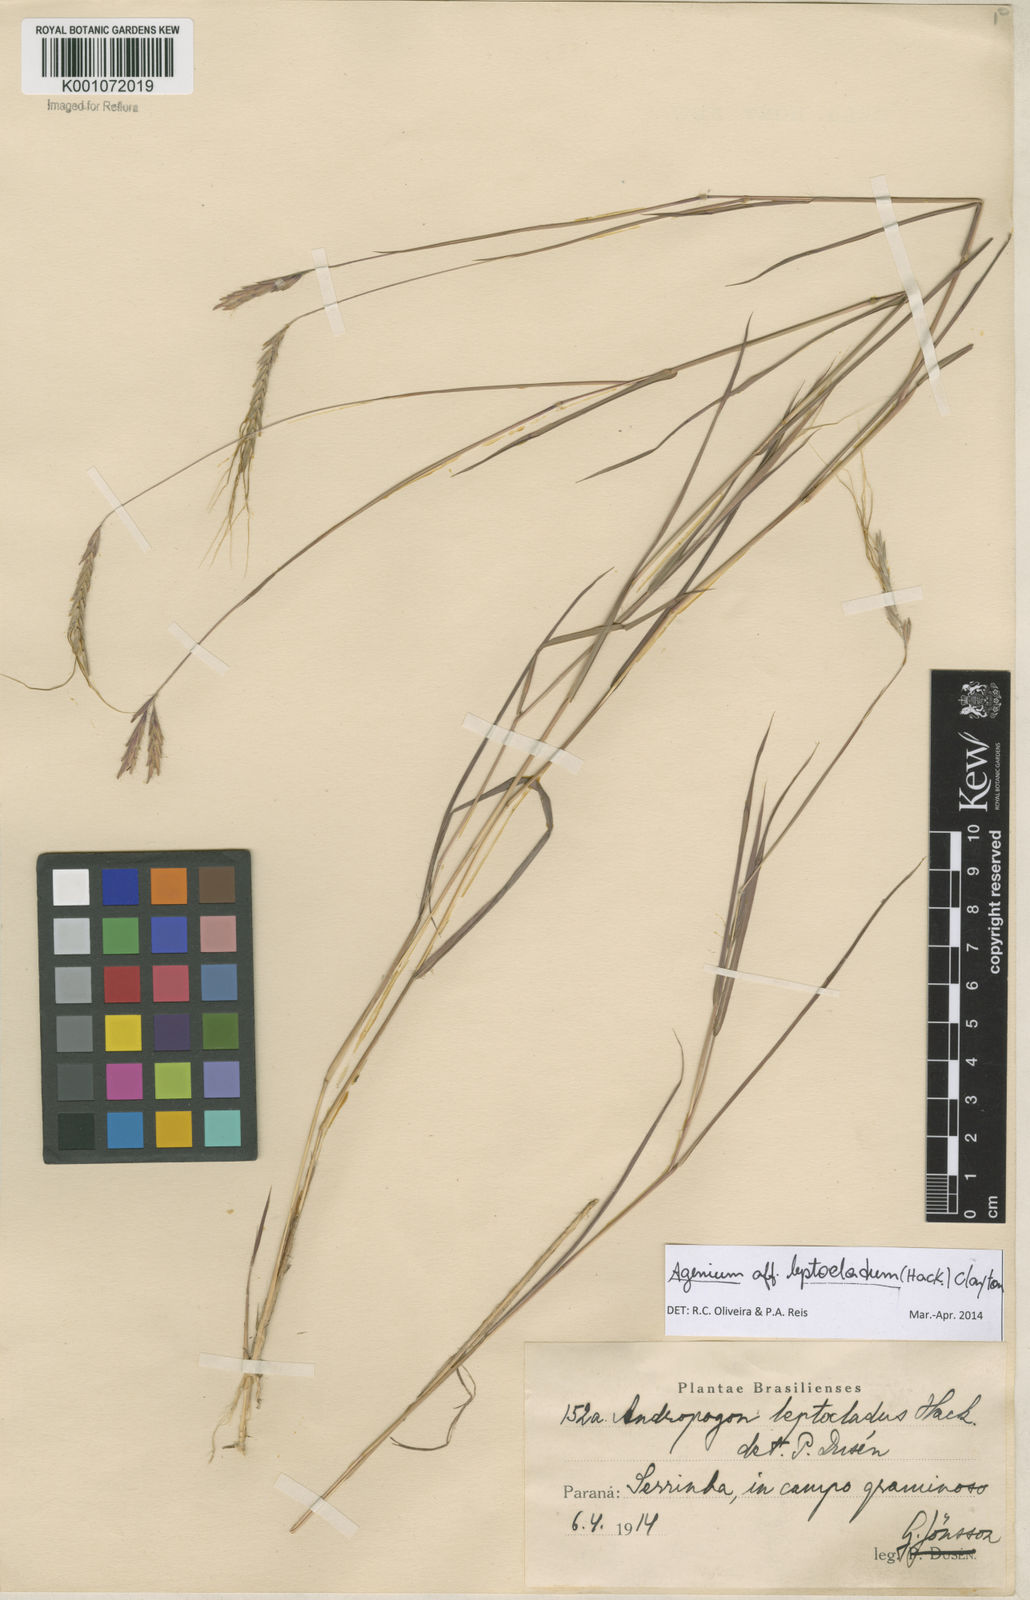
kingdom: Plantae
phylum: Tracheophyta
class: Liliopsida
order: Poales
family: Poaceae
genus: Agenium
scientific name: Agenium leptocladum
